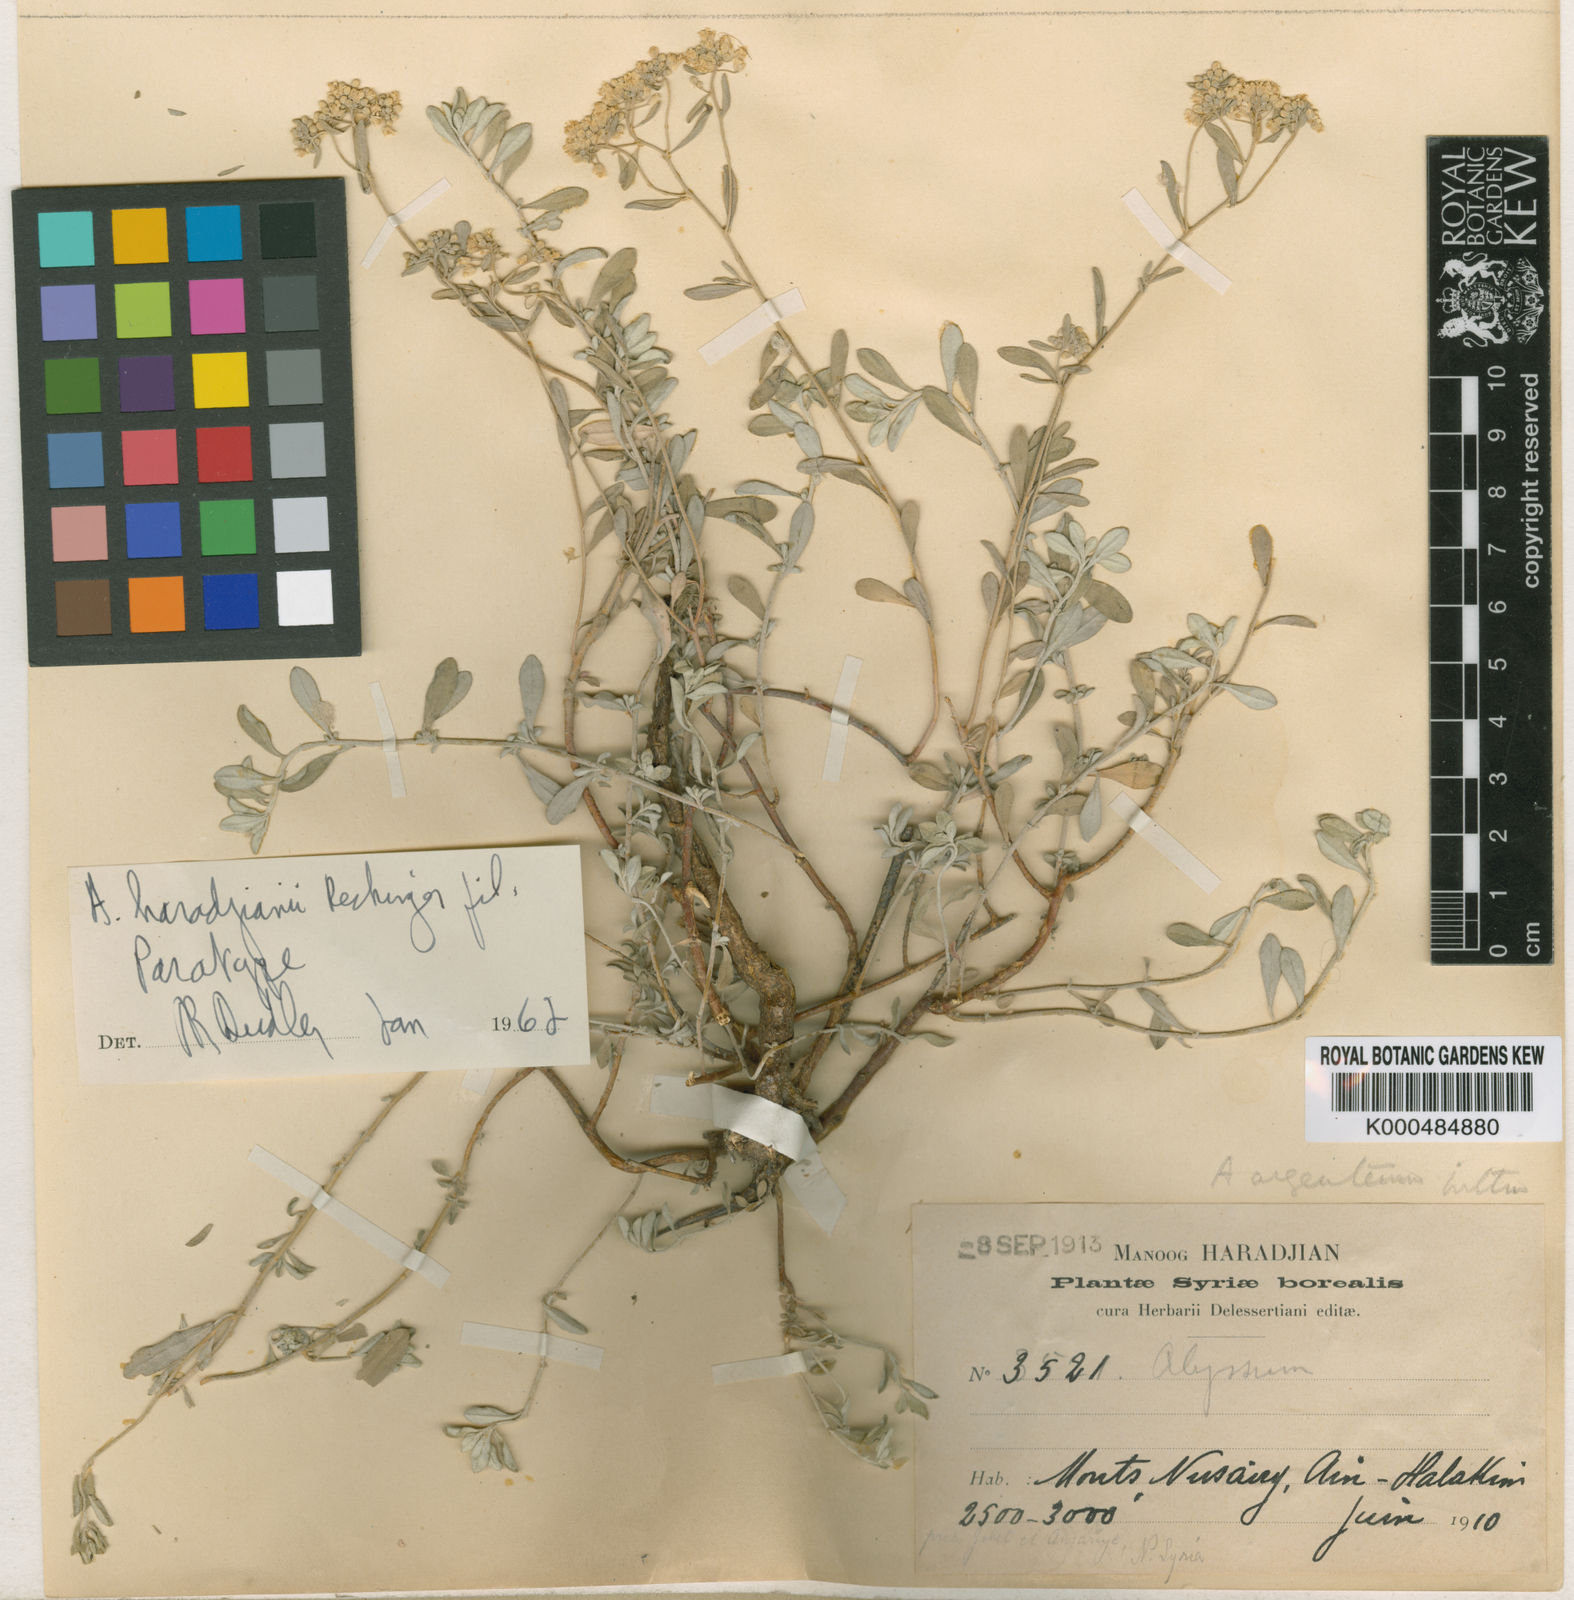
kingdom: Plantae
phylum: Tracheophyta
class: Magnoliopsida
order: Brassicales
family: Brassicaceae
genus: Odontarrhena
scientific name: Odontarrhena haradjianii
